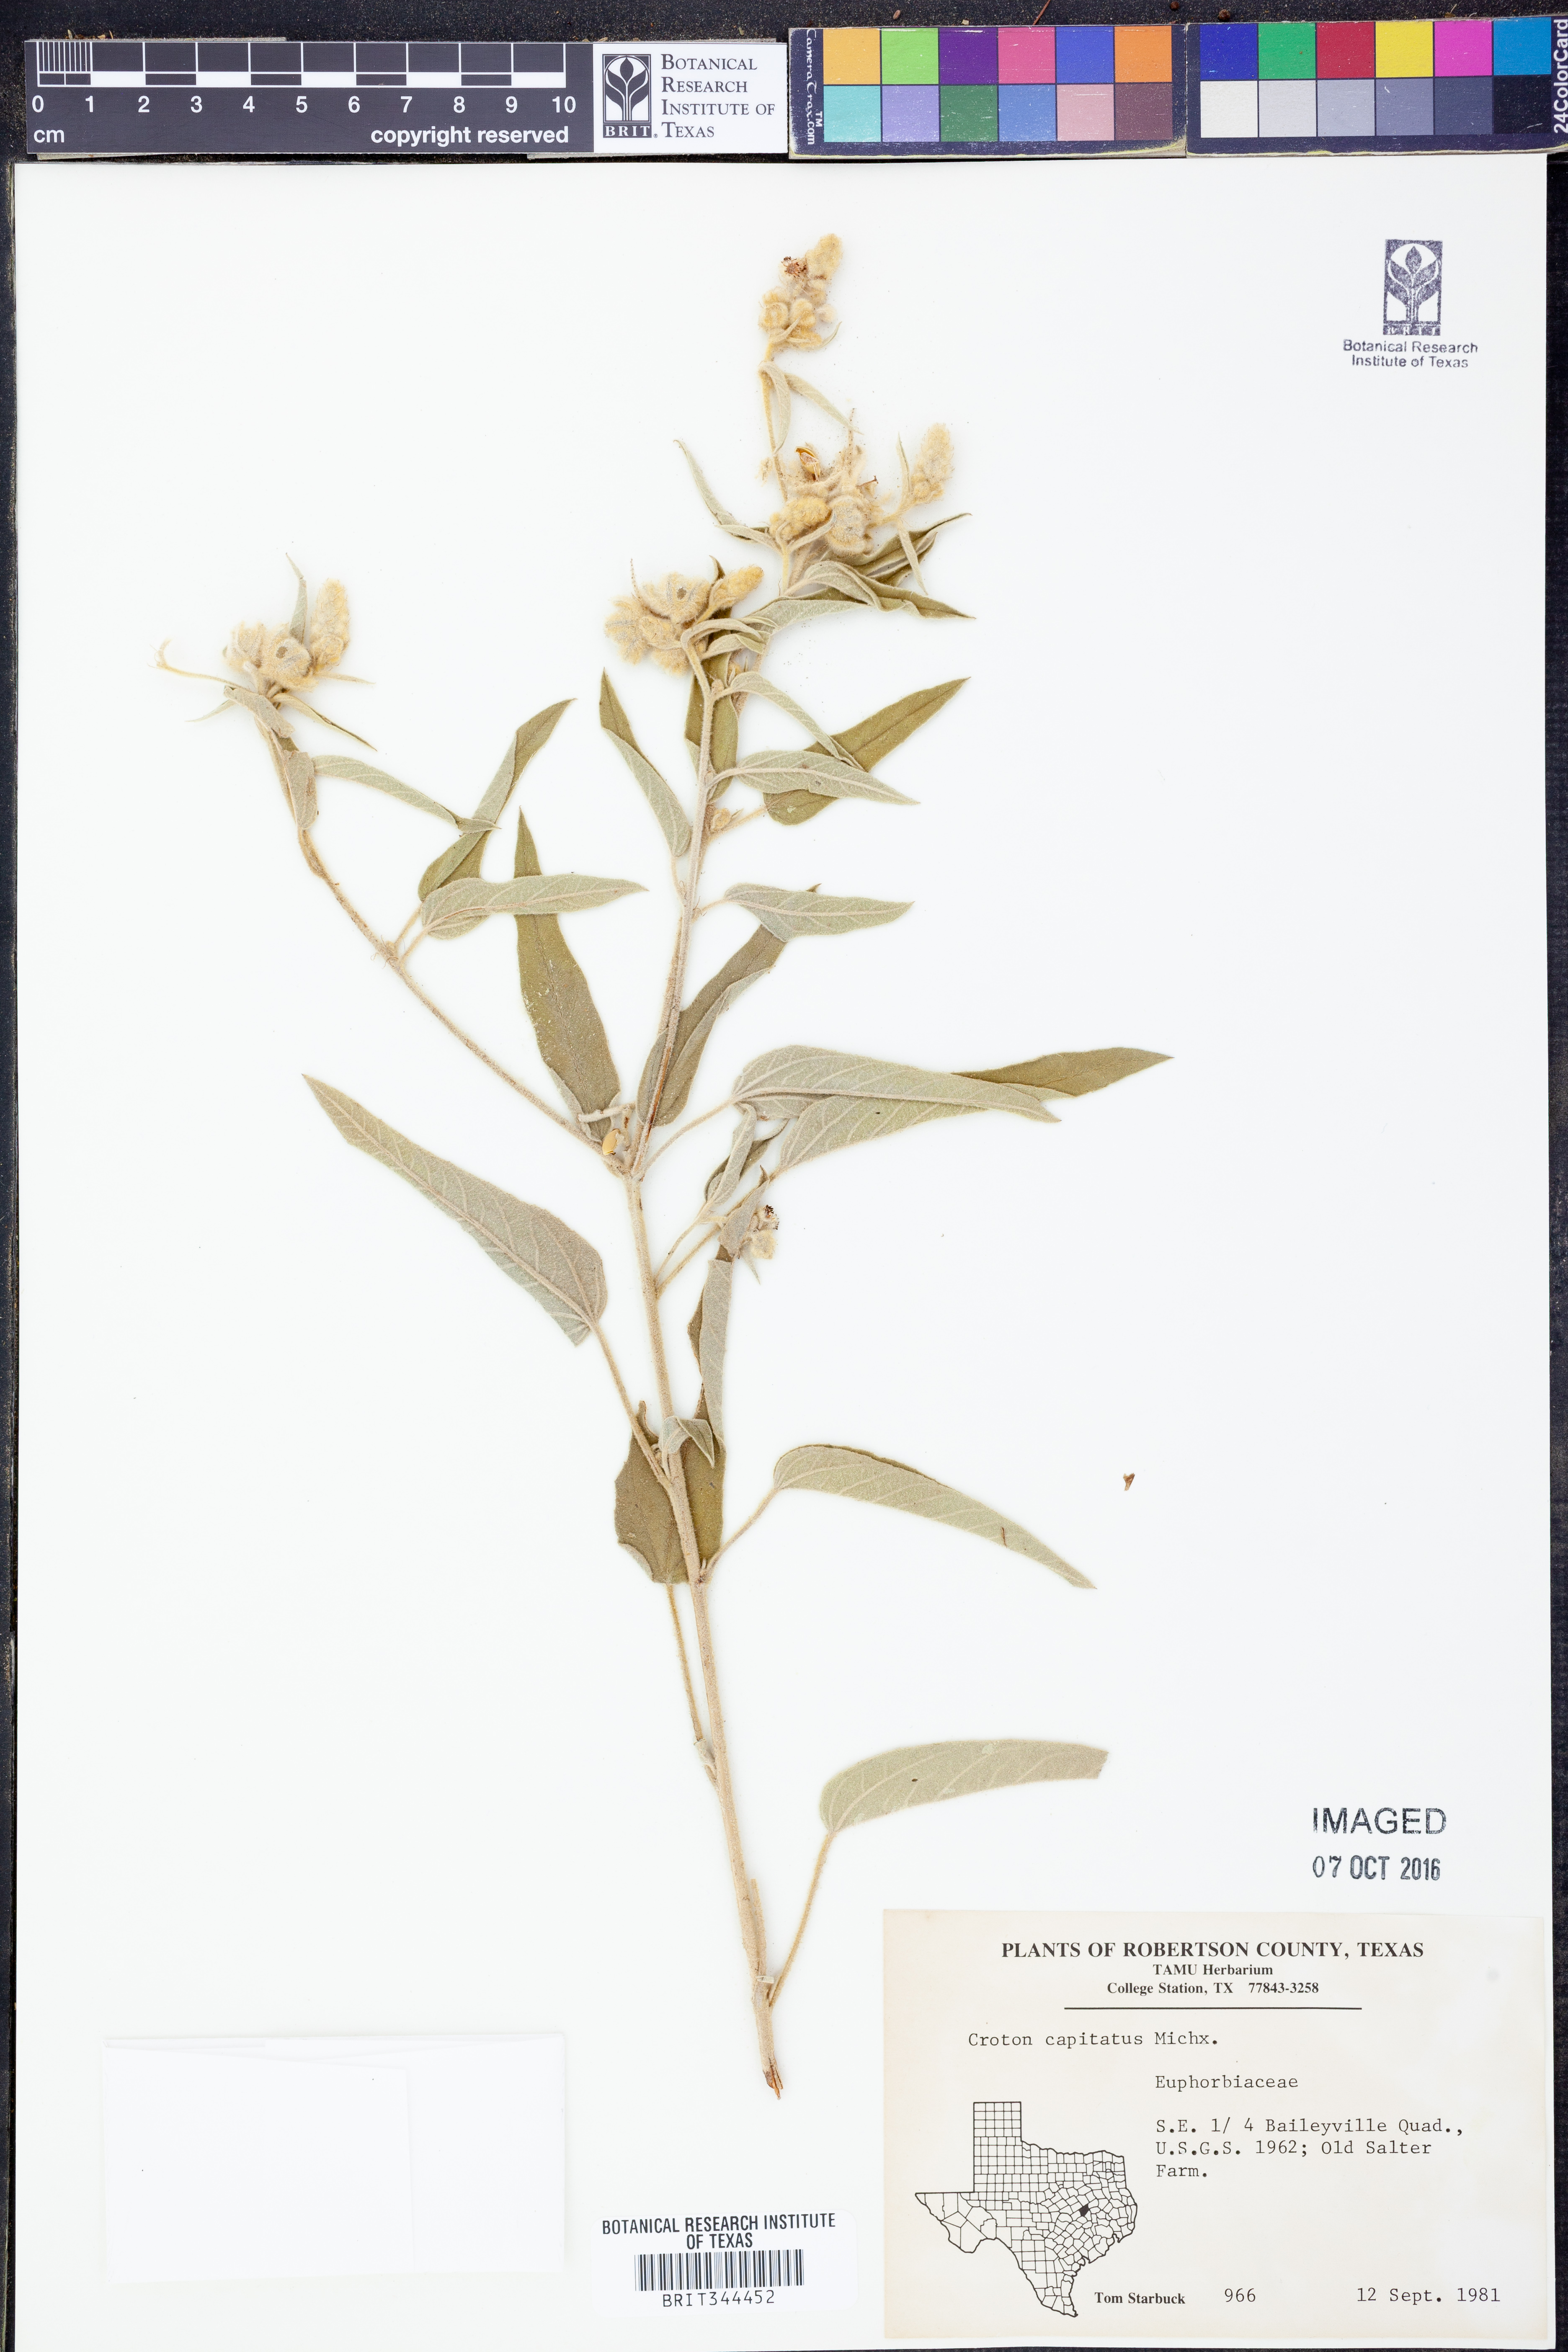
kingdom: Plantae
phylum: Tracheophyta
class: Magnoliopsida
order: Malpighiales
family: Euphorbiaceae
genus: Croton
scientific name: Croton capitatus
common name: Woolly croton
